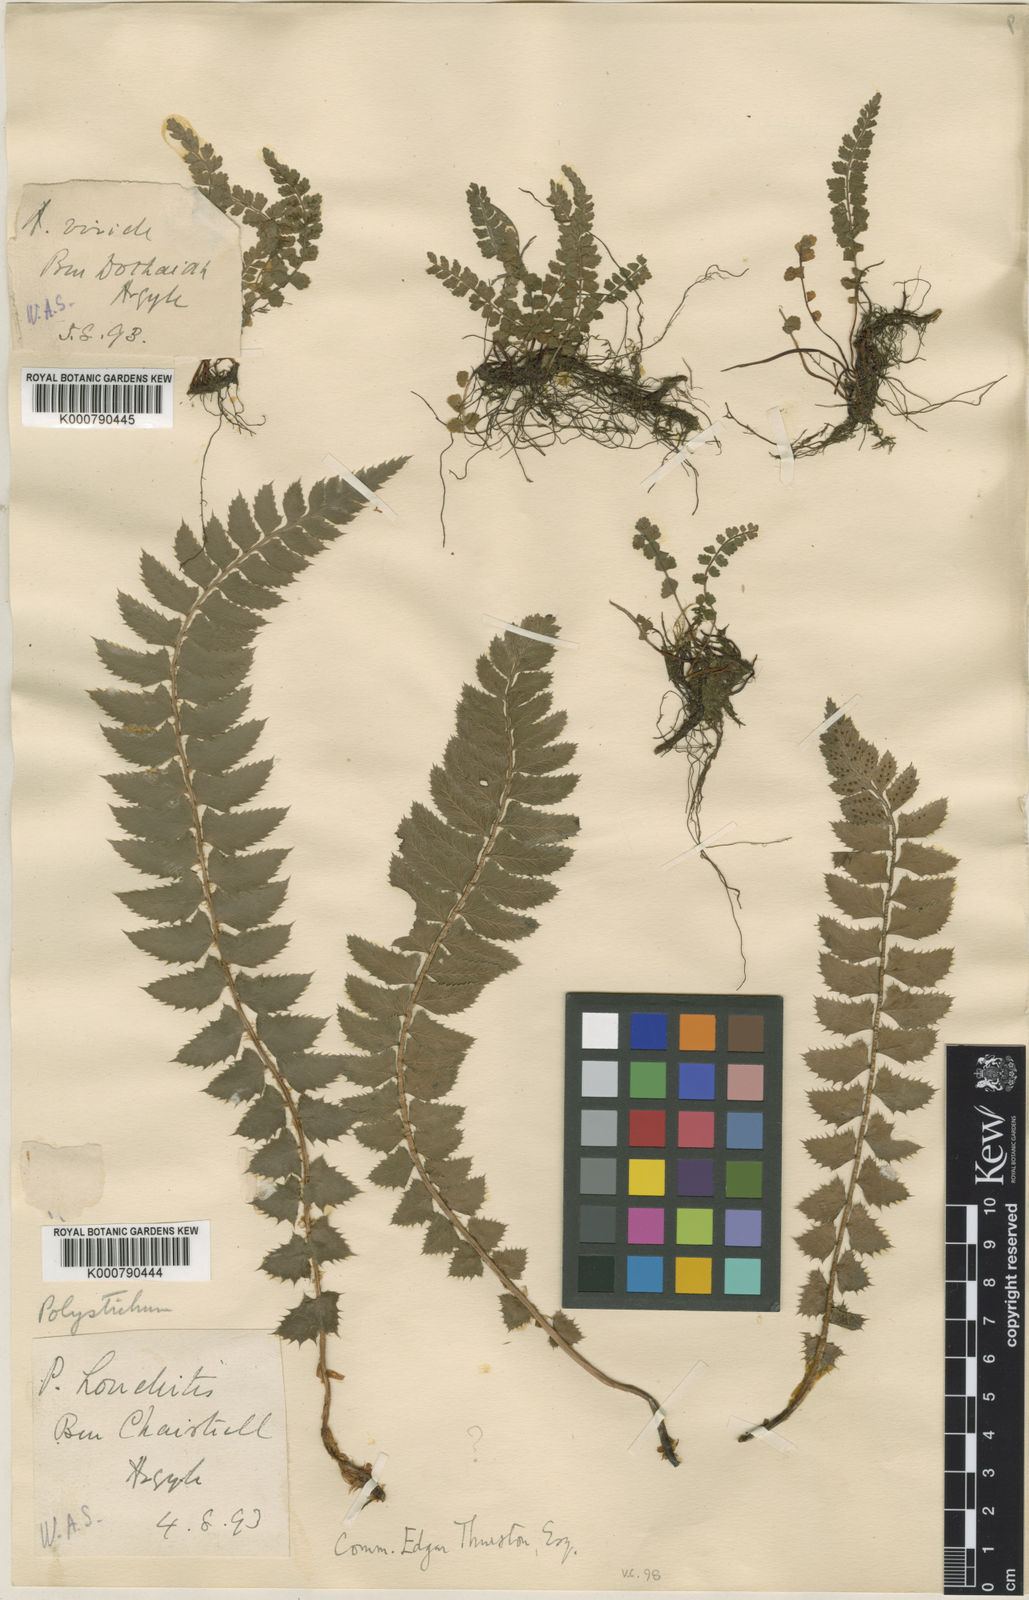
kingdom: Plantae
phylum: Tracheophyta
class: Polypodiopsida
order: Polypodiales
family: Dryopteridaceae
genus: Polystichum
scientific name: Polystichum
